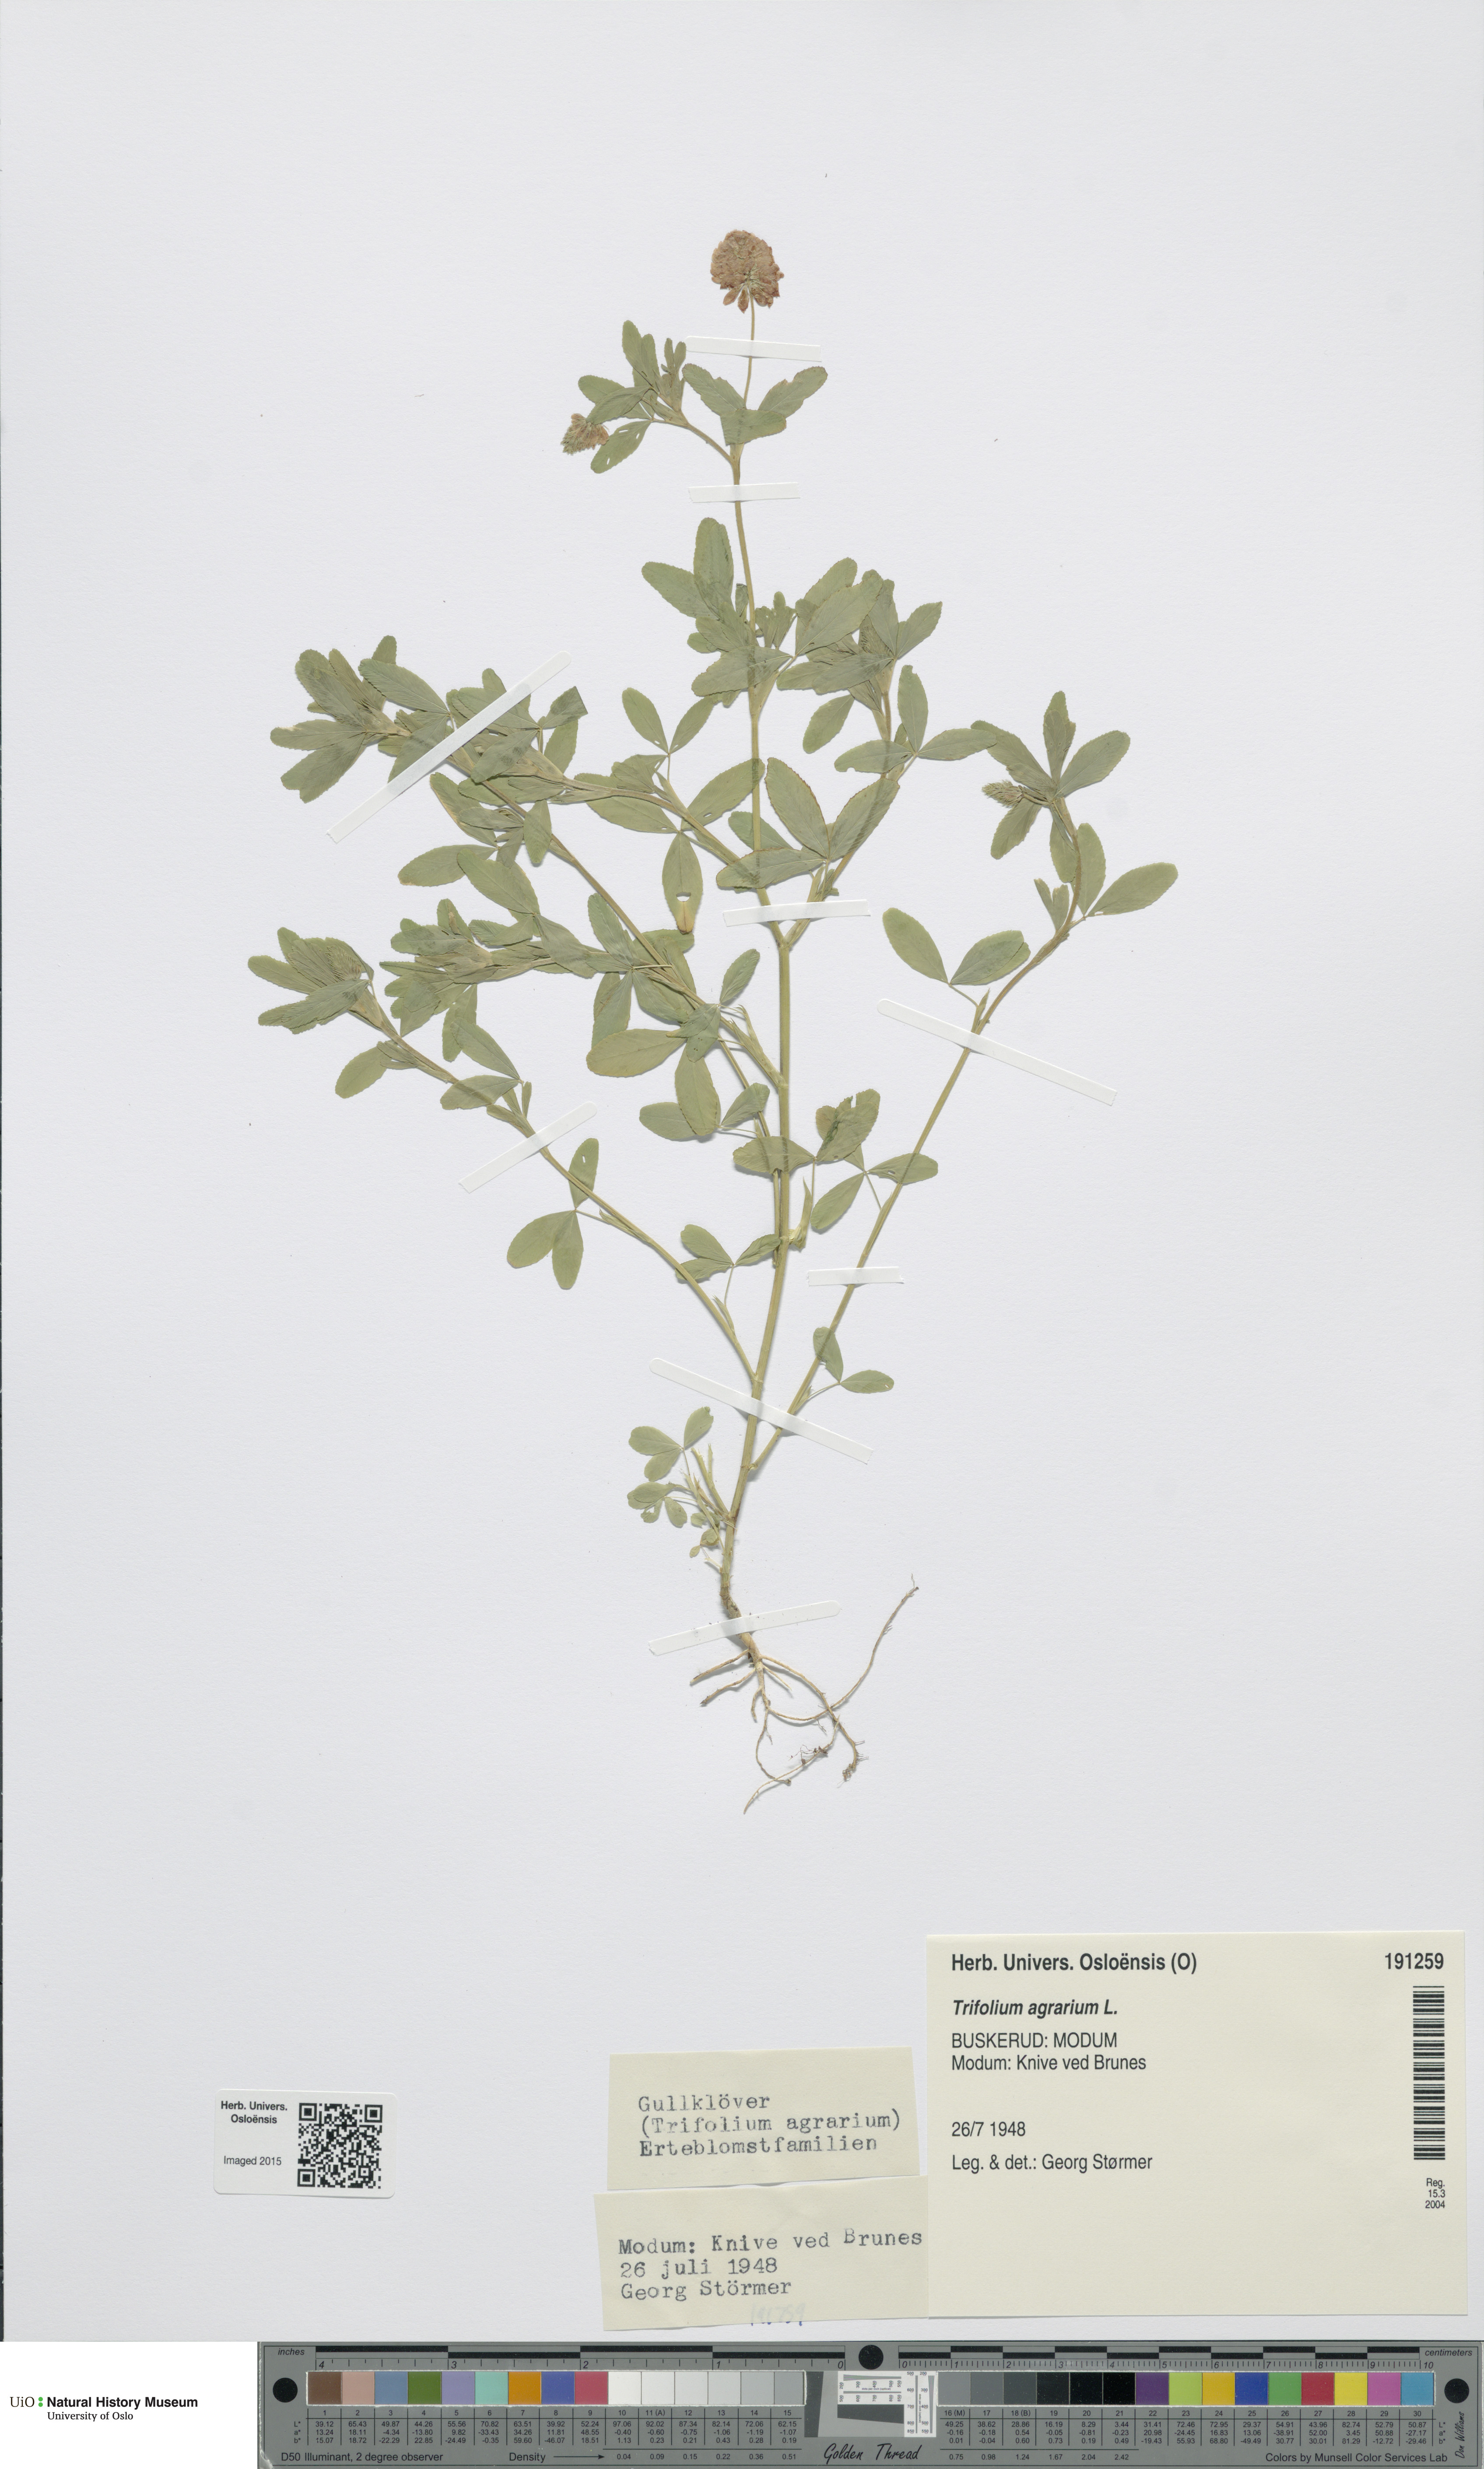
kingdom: Plantae
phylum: Tracheophyta
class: Magnoliopsida
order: Fabales
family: Fabaceae
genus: Trifolium
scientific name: Trifolium aureum
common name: Golden clover
